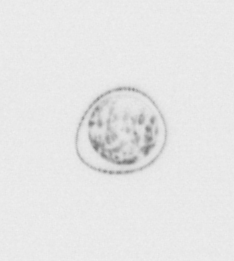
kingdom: Chromista
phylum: Ochrophyta
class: Bacillariophyceae
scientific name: Bacillariophyceae
